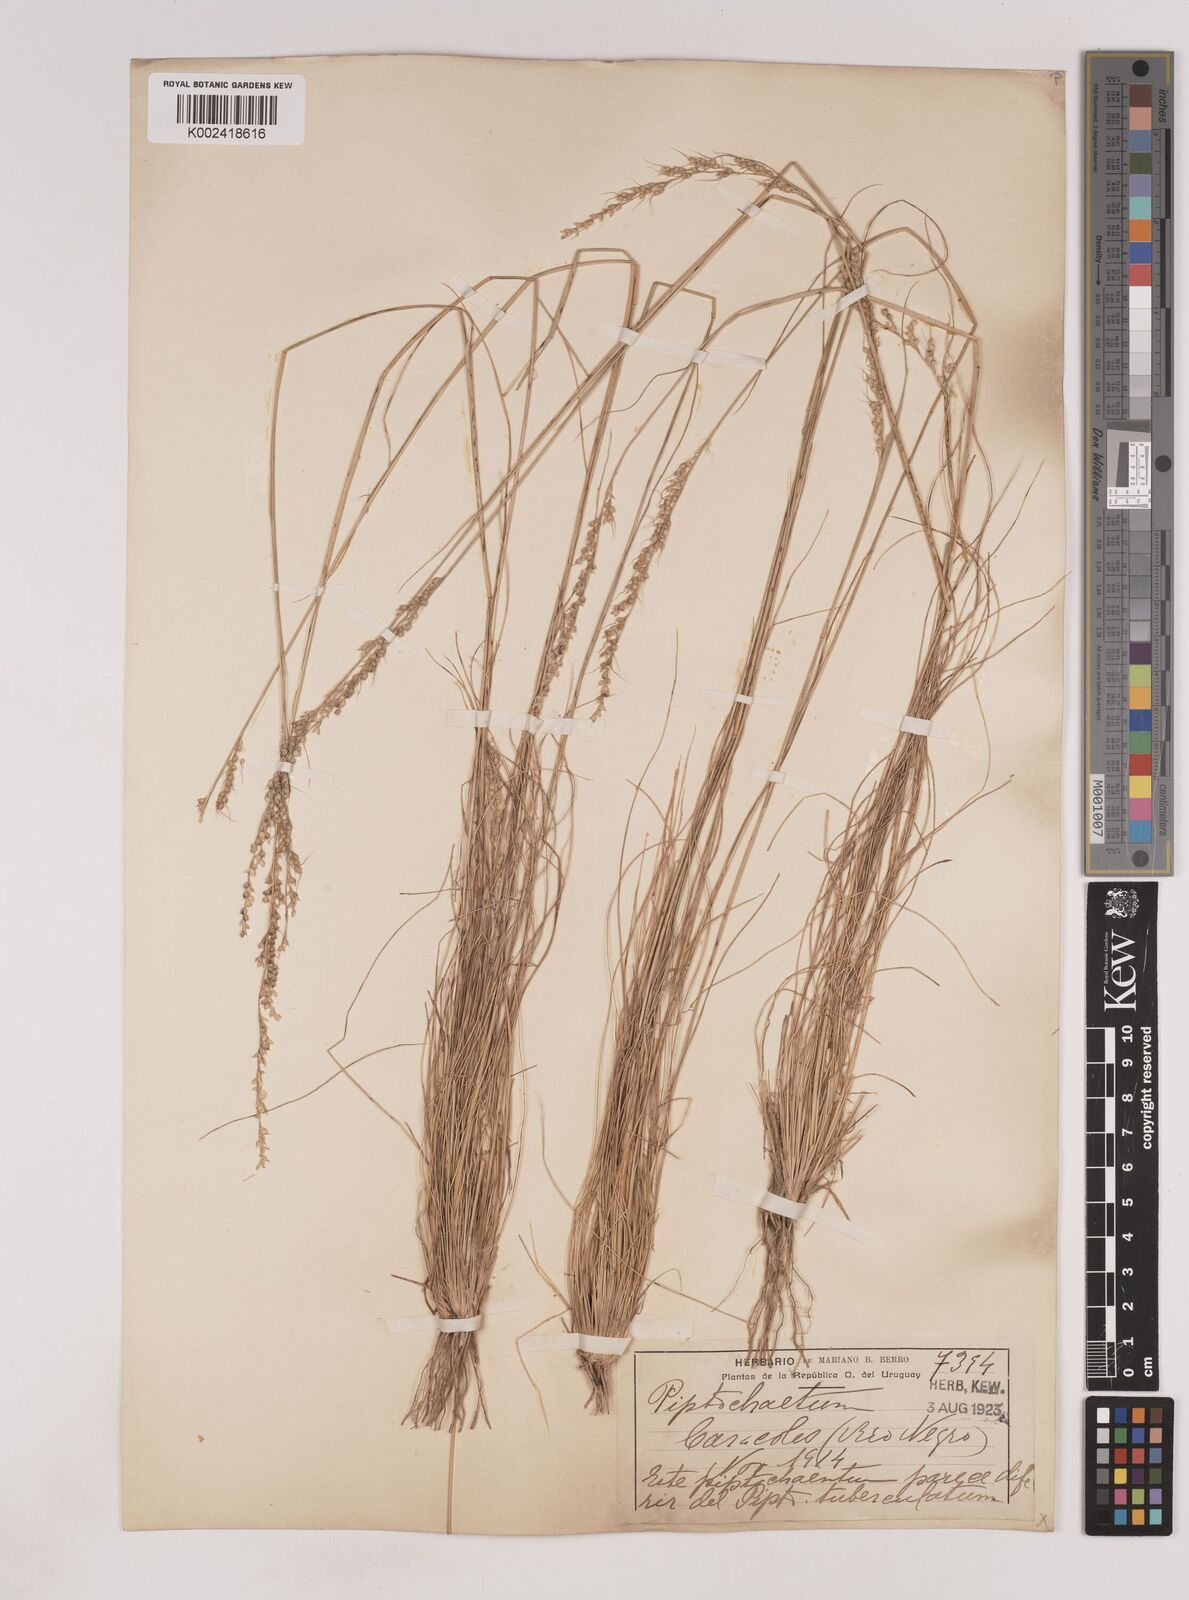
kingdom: Plantae
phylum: Tracheophyta
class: Liliopsida
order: Poales
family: Poaceae
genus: Piptochaetium
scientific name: Piptochaetium
